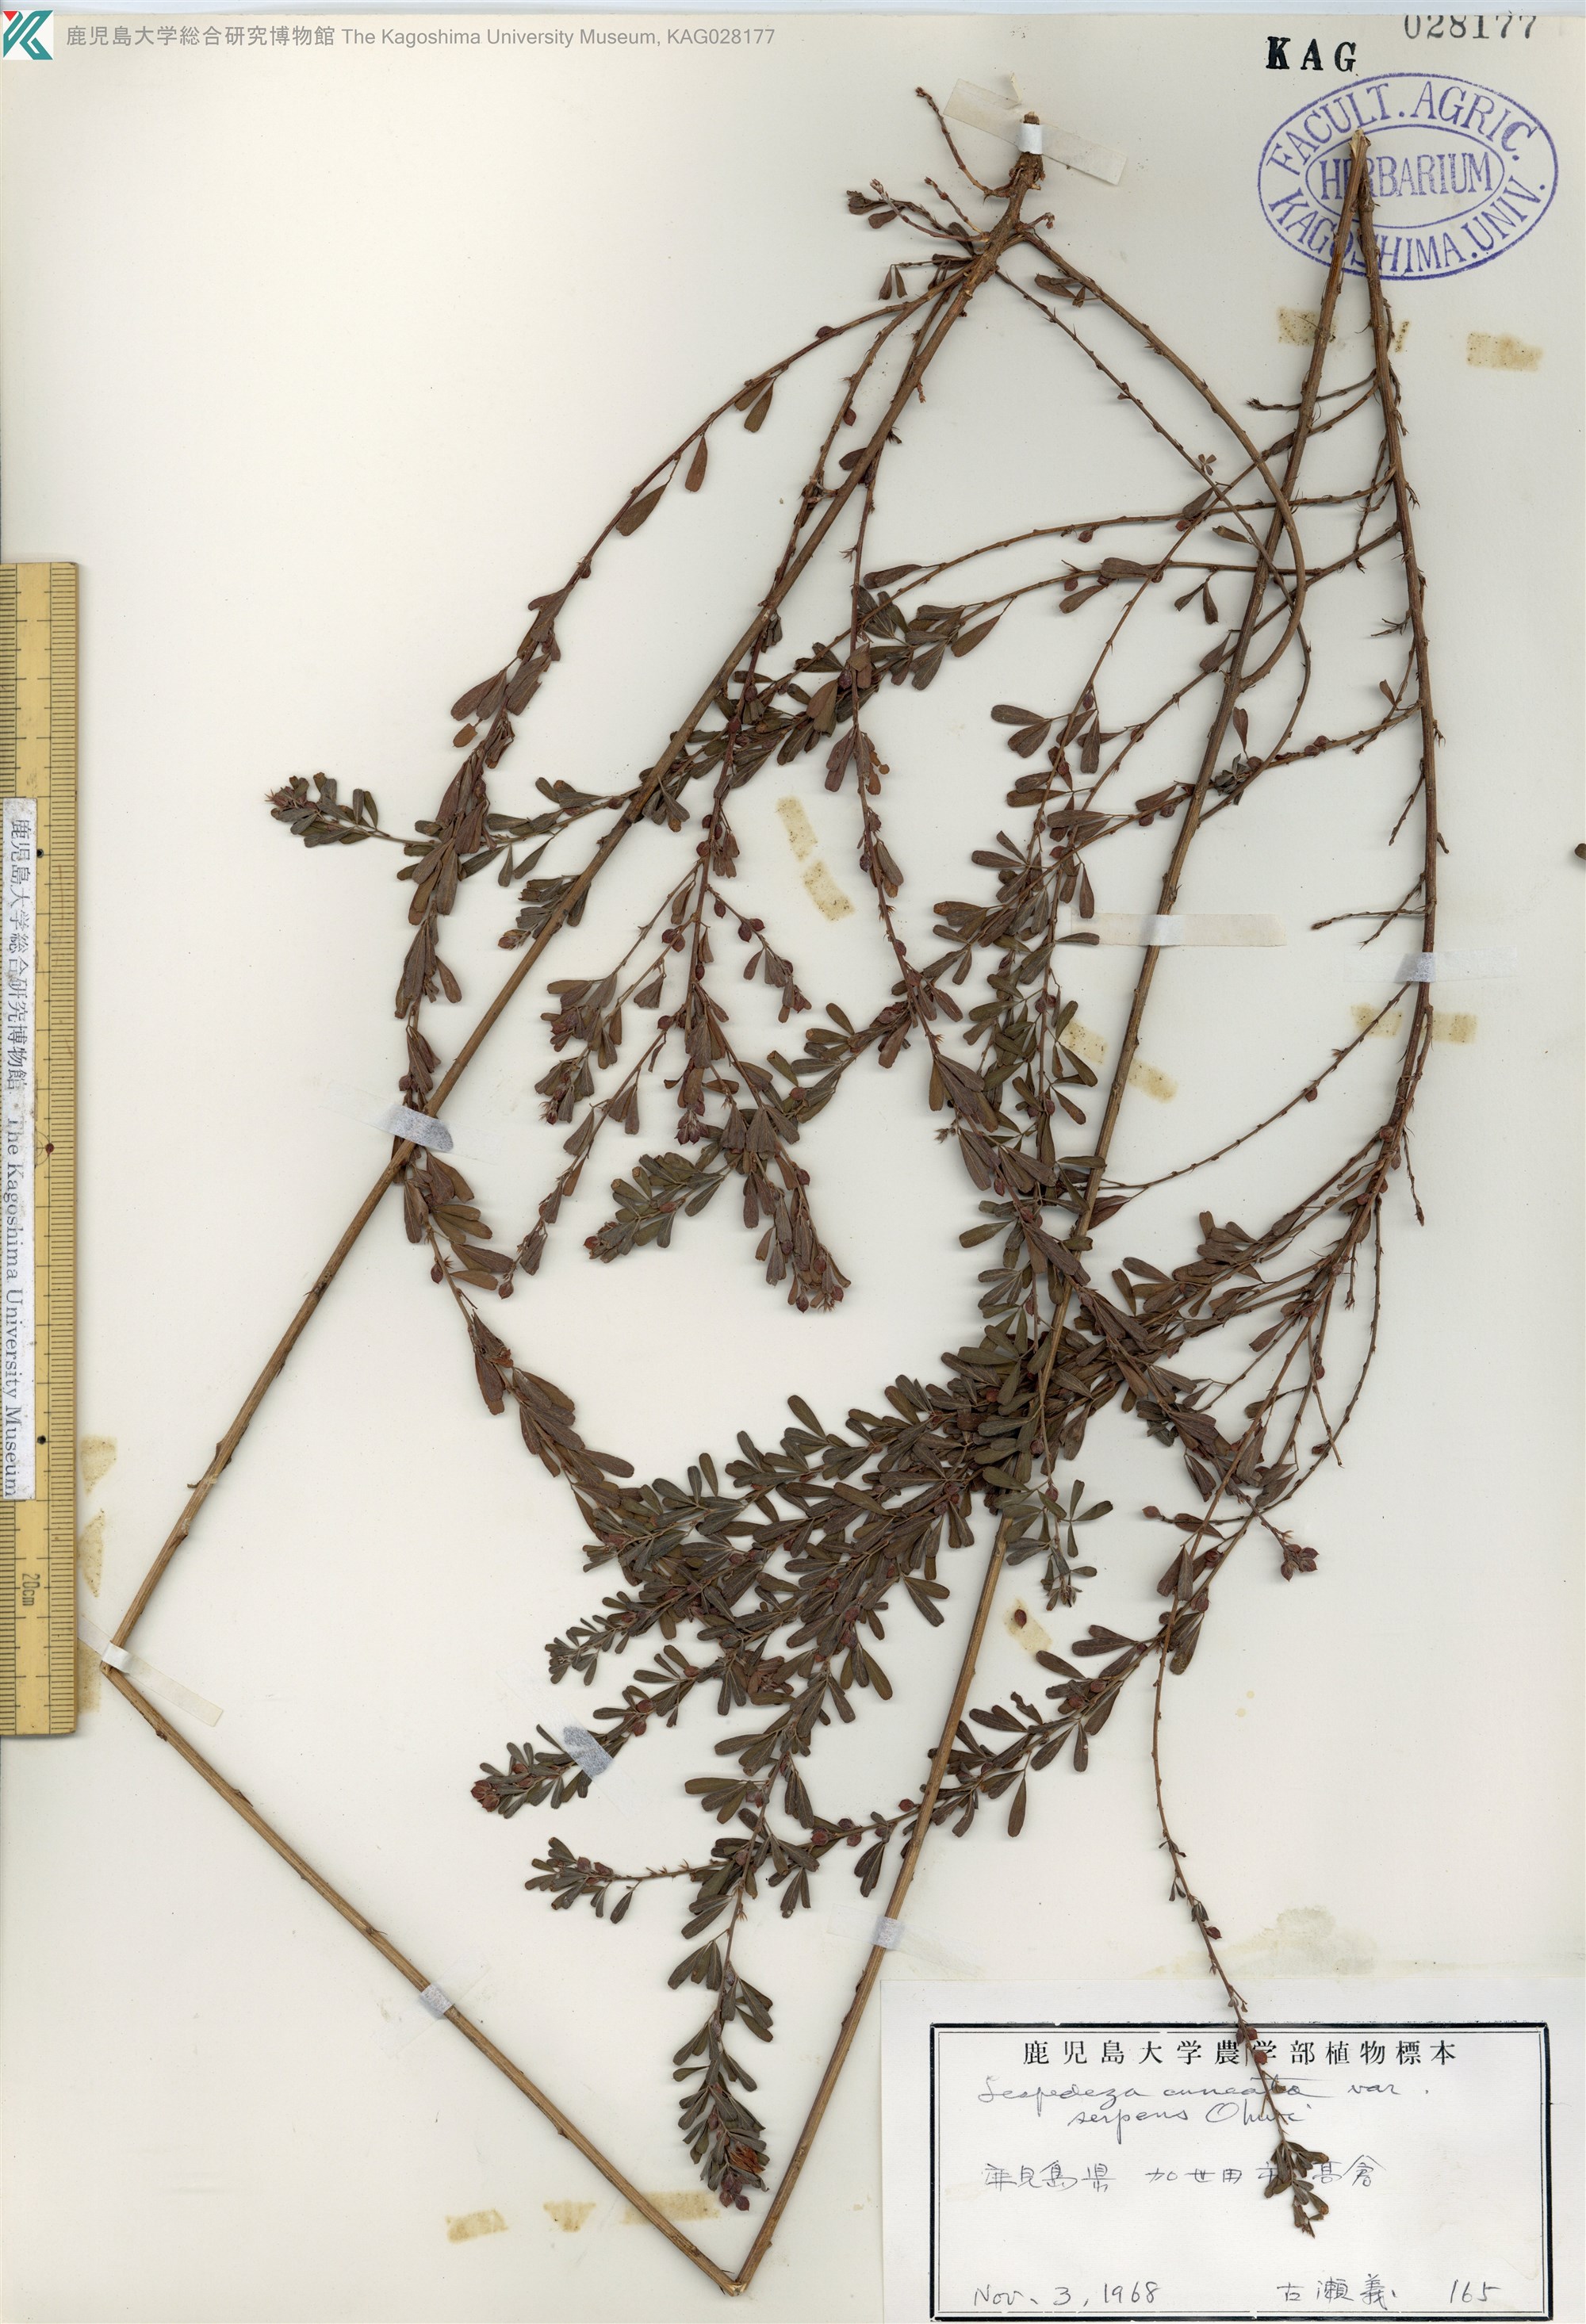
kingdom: Plantae
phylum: Tracheophyta
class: Magnoliopsida
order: Fabales
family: Fabaceae
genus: Lespedeza
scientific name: Lespedeza cuneata
